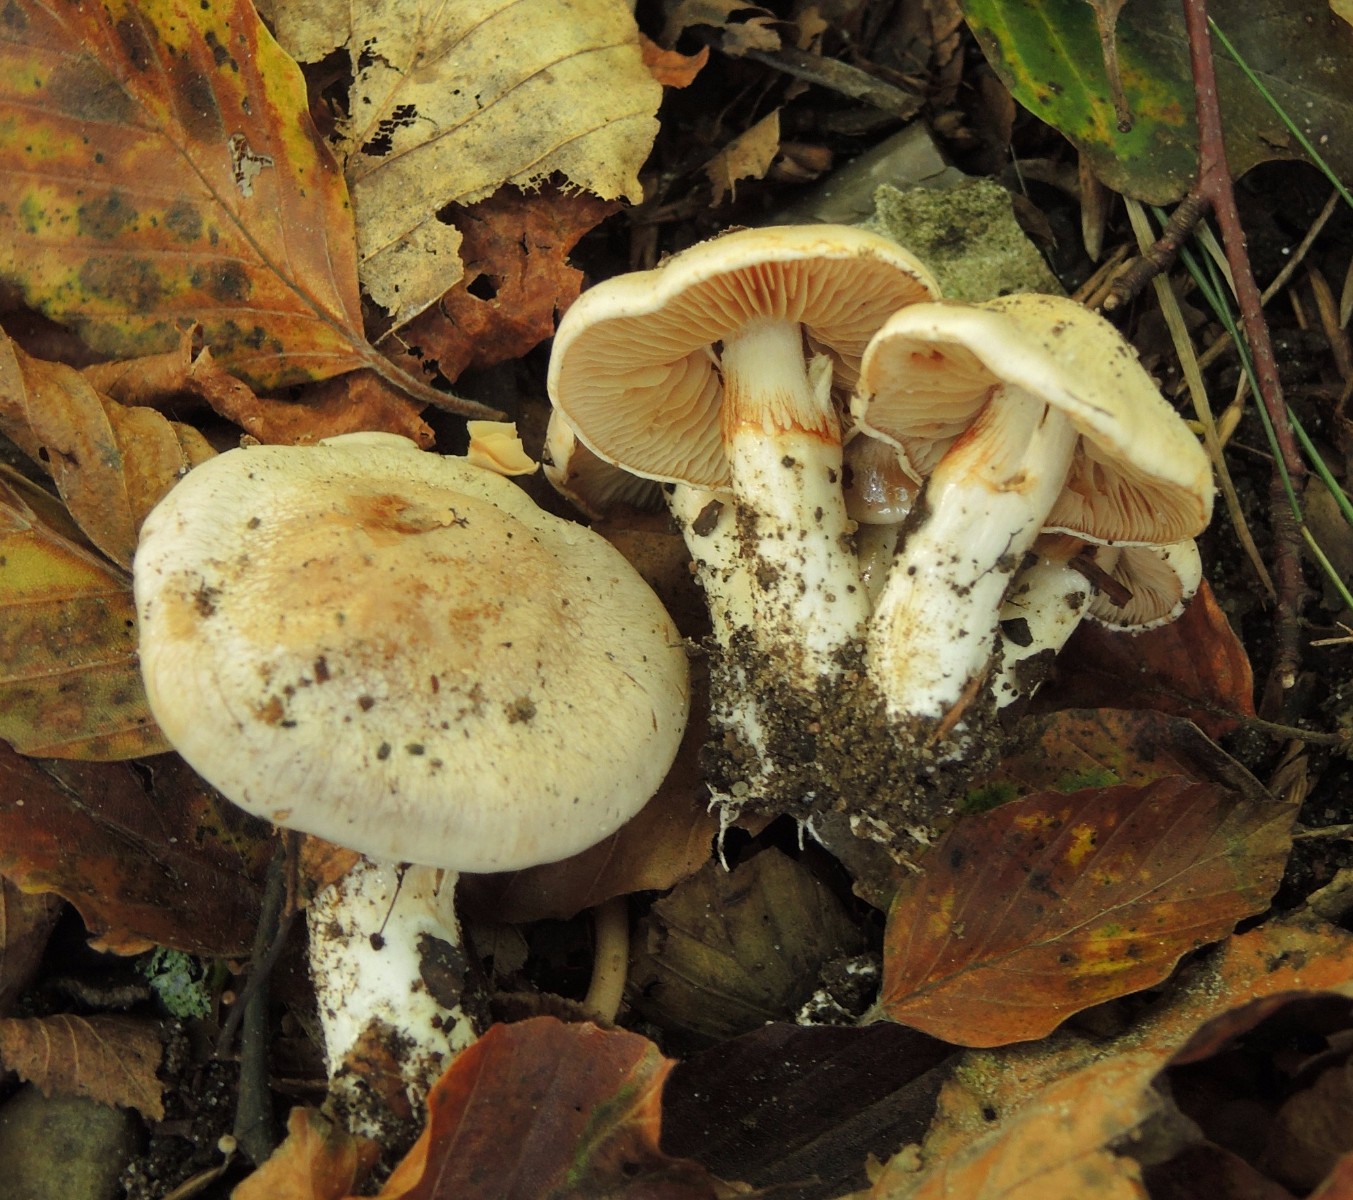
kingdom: Fungi
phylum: Basidiomycota
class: Agaricomycetes
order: Agaricales
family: Cortinariaceae
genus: Thaxterogaster
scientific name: Thaxterogaster leucoluteolus
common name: isabella slørhat
